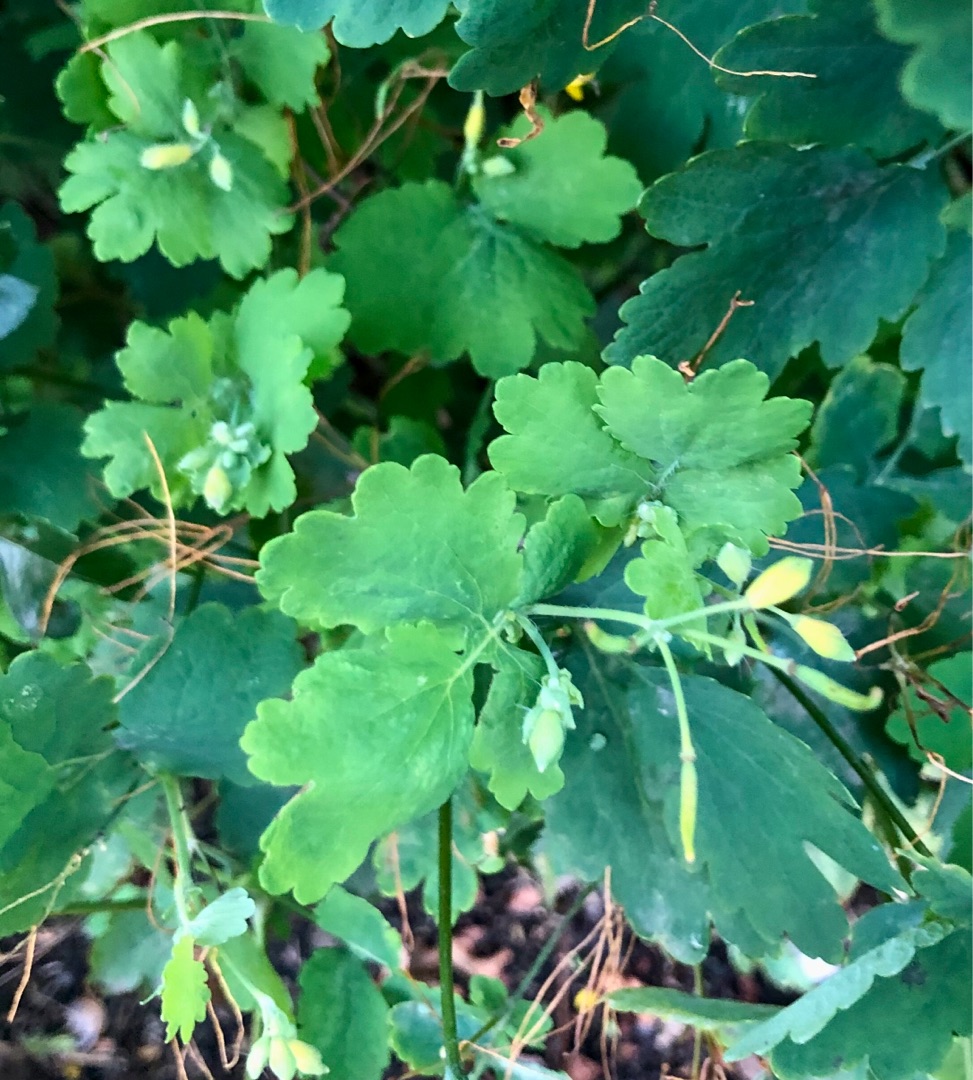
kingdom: Plantae
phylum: Tracheophyta
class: Magnoliopsida
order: Ranunculales
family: Papaveraceae
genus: Chelidonium
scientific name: Chelidonium majus
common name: Svaleurt
